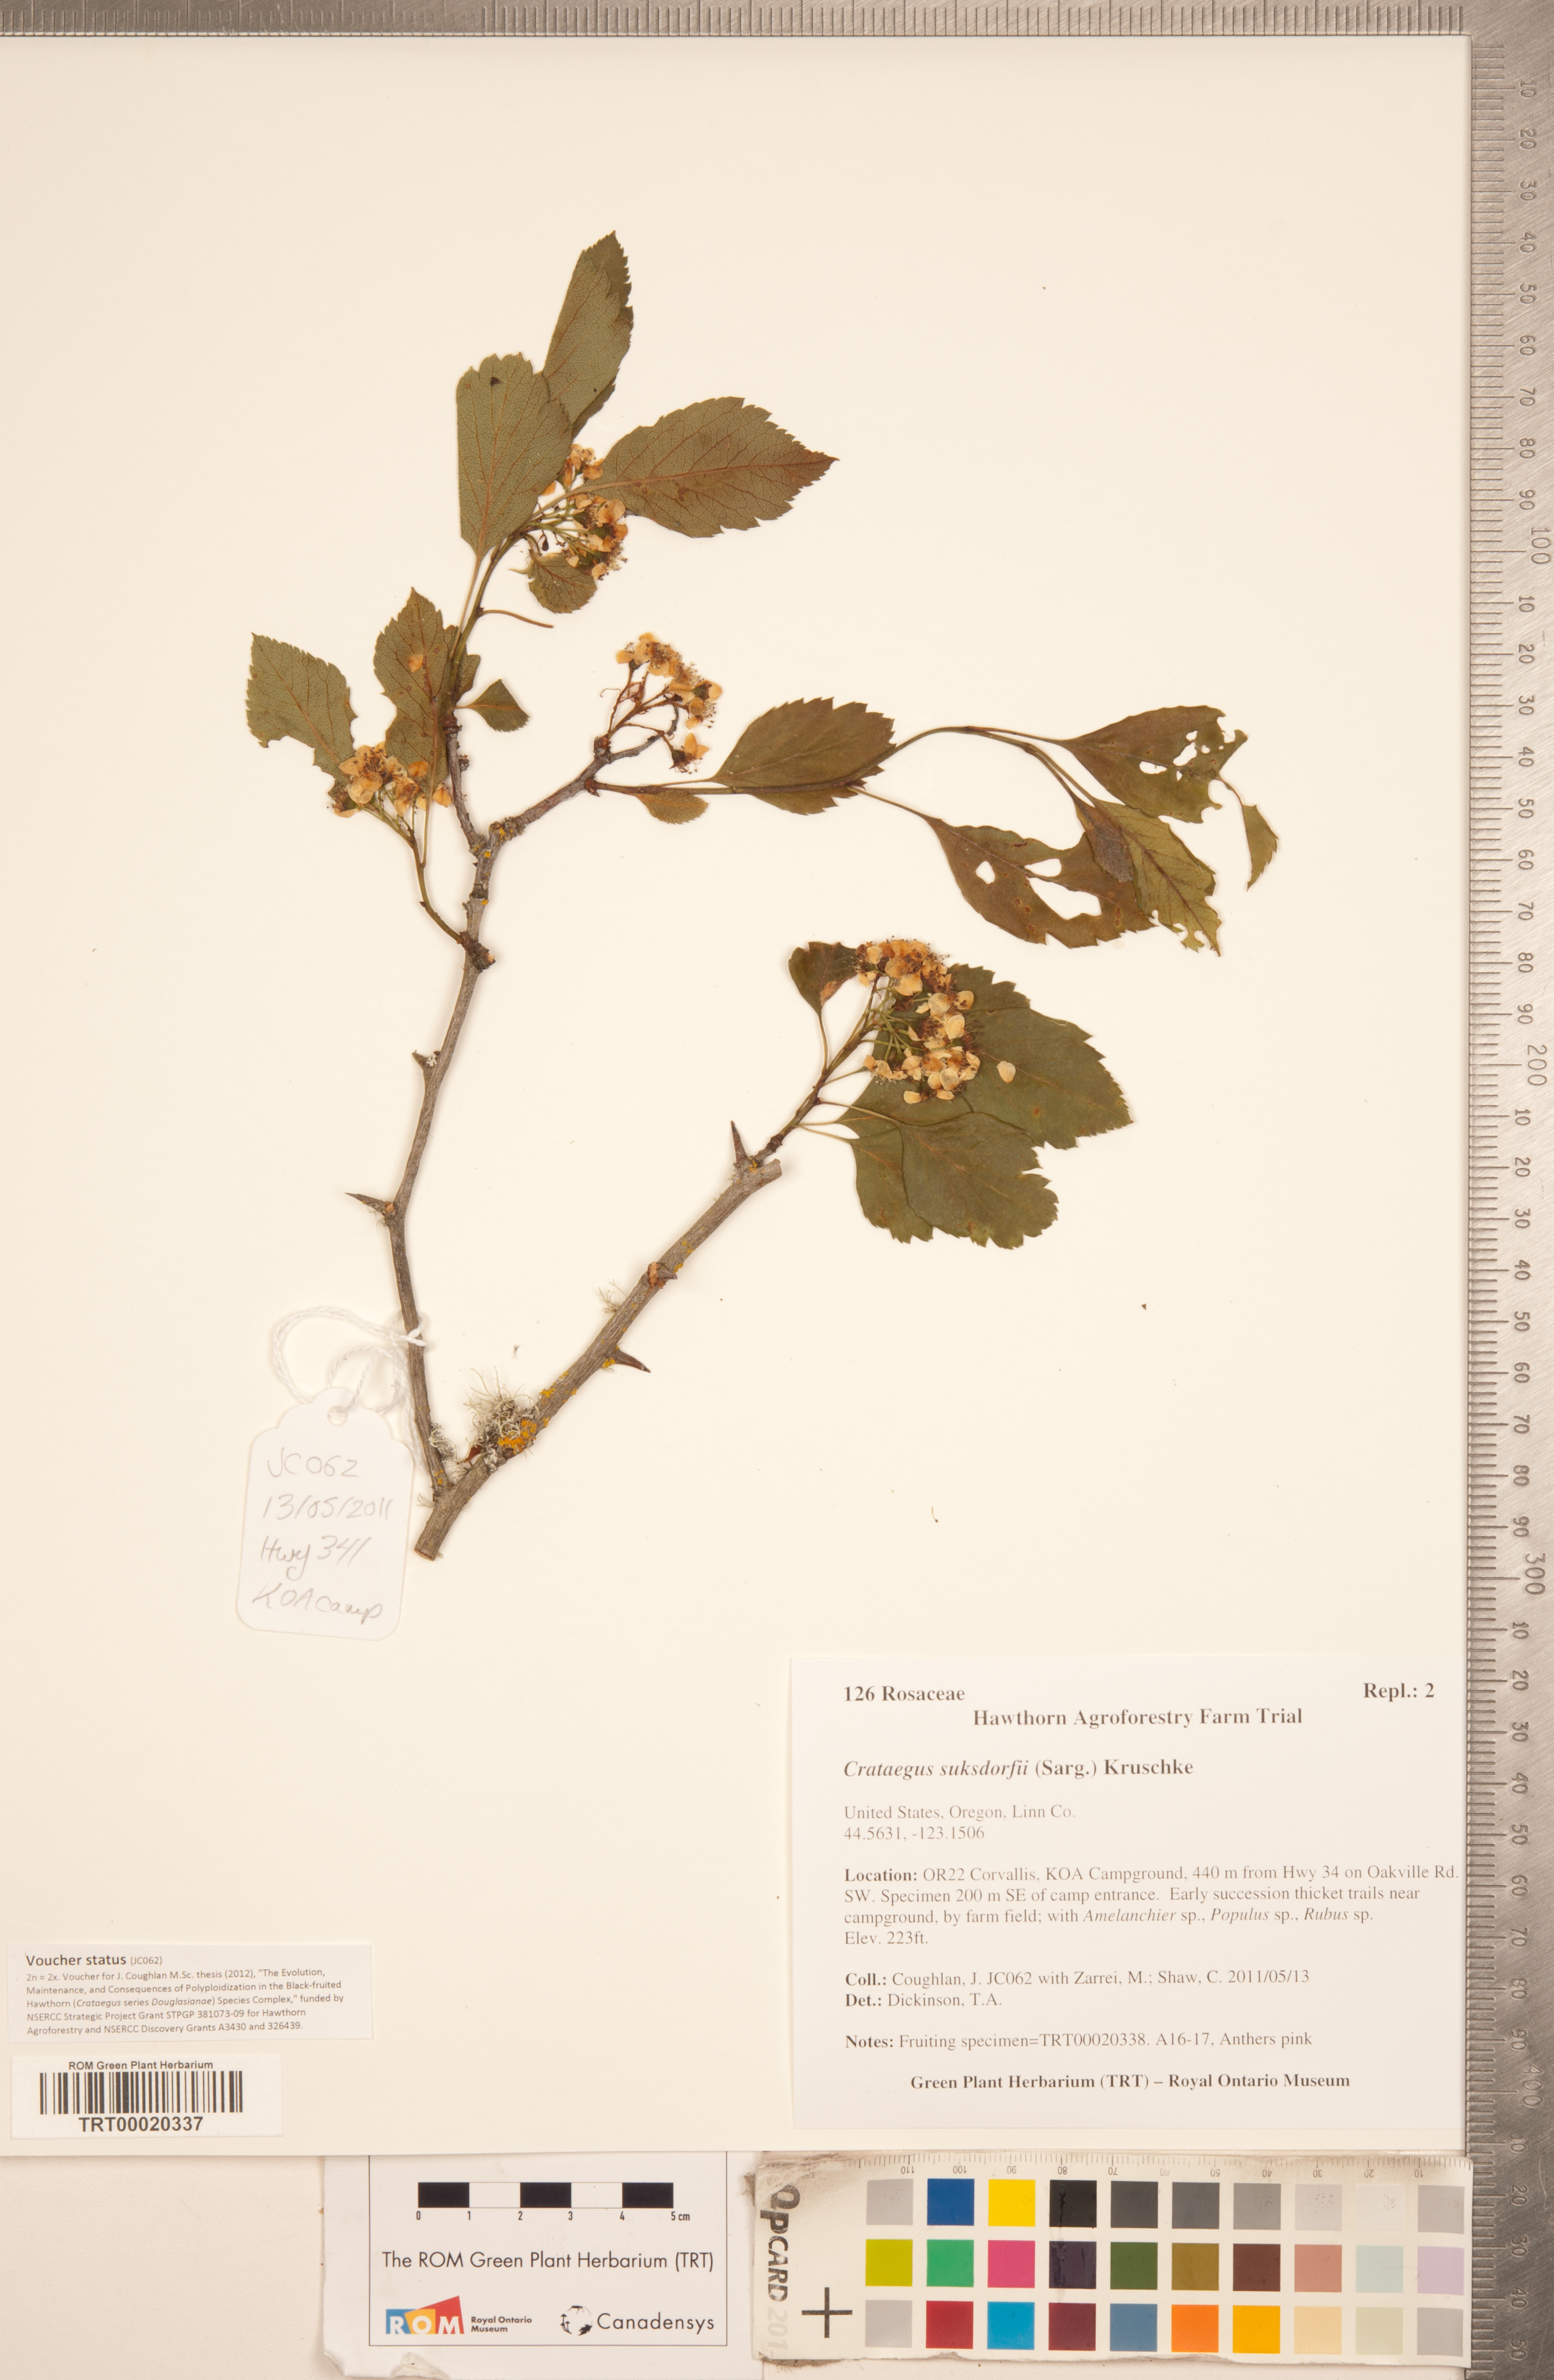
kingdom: Plantae
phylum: Tracheophyta
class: Magnoliopsida
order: Rosales
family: Rosaceae
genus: Crataegus
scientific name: Crataegus gaylussacia
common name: Huckleberry hawthorn
